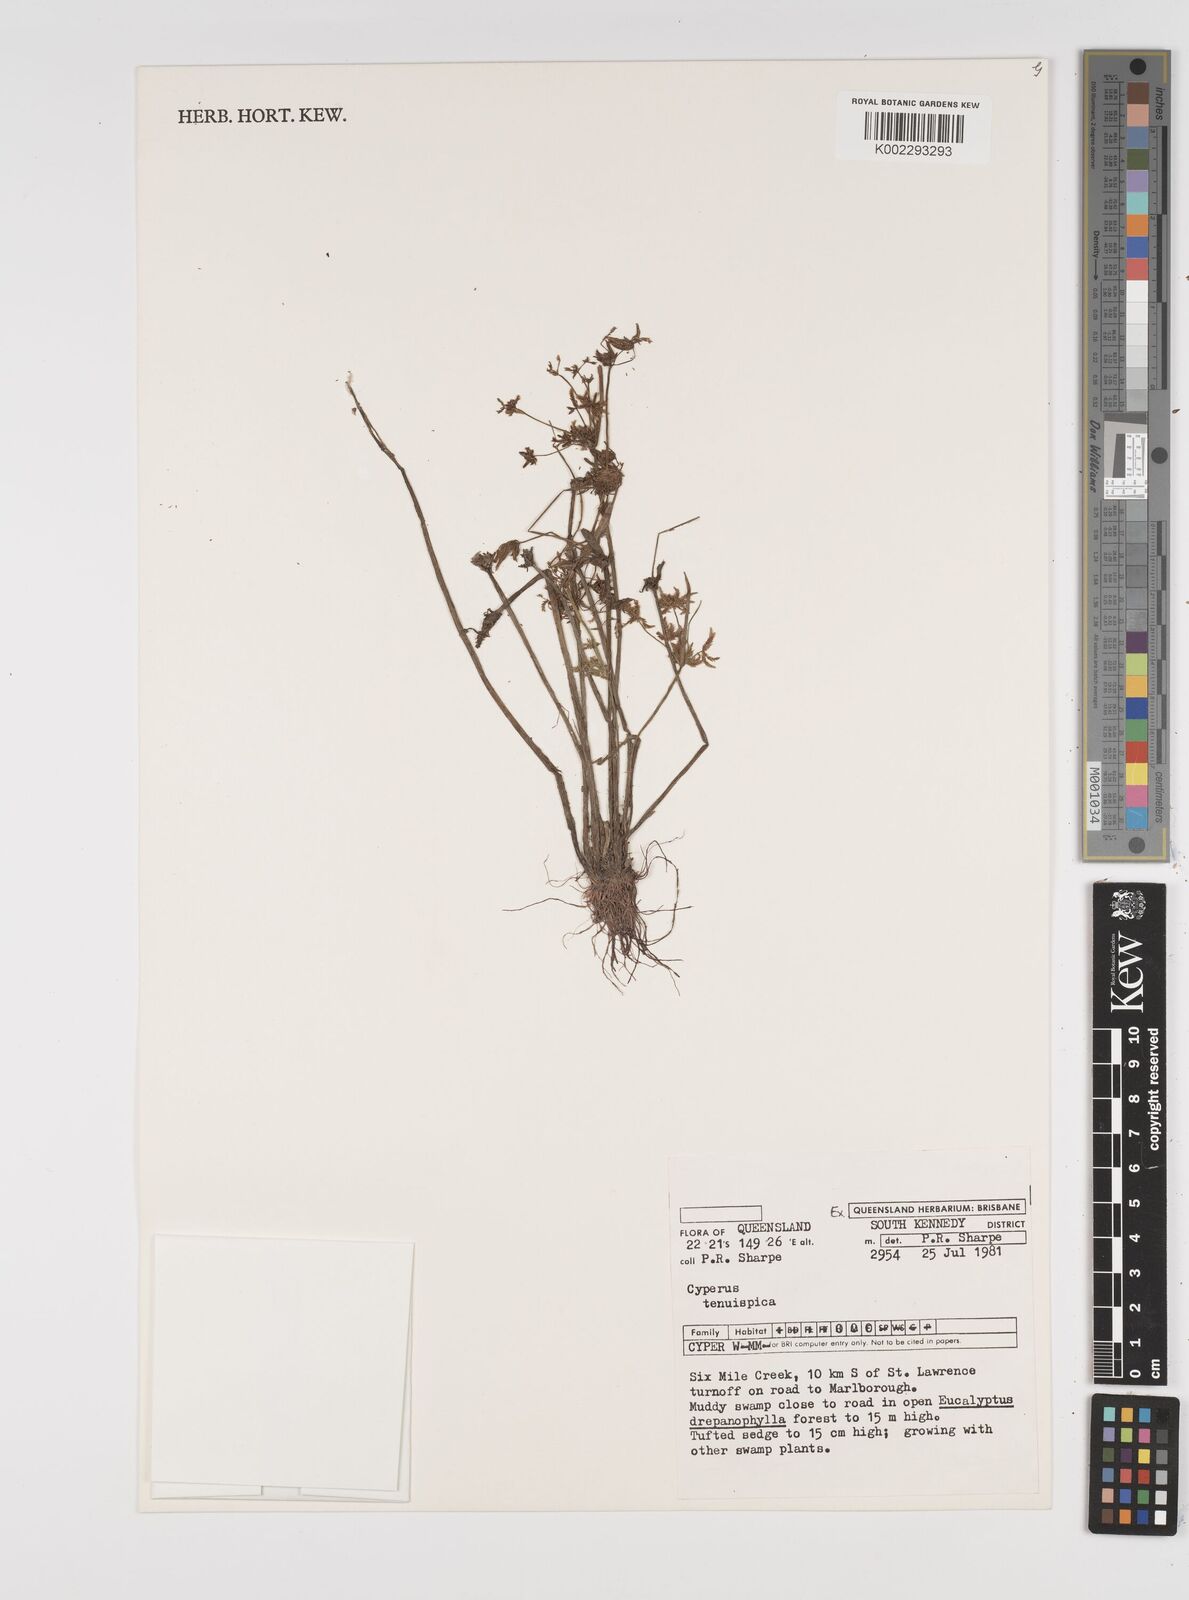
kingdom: Plantae
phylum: Tracheophyta
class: Liliopsida
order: Poales
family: Cyperaceae
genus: Cyperus
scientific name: Cyperus tenuispica
